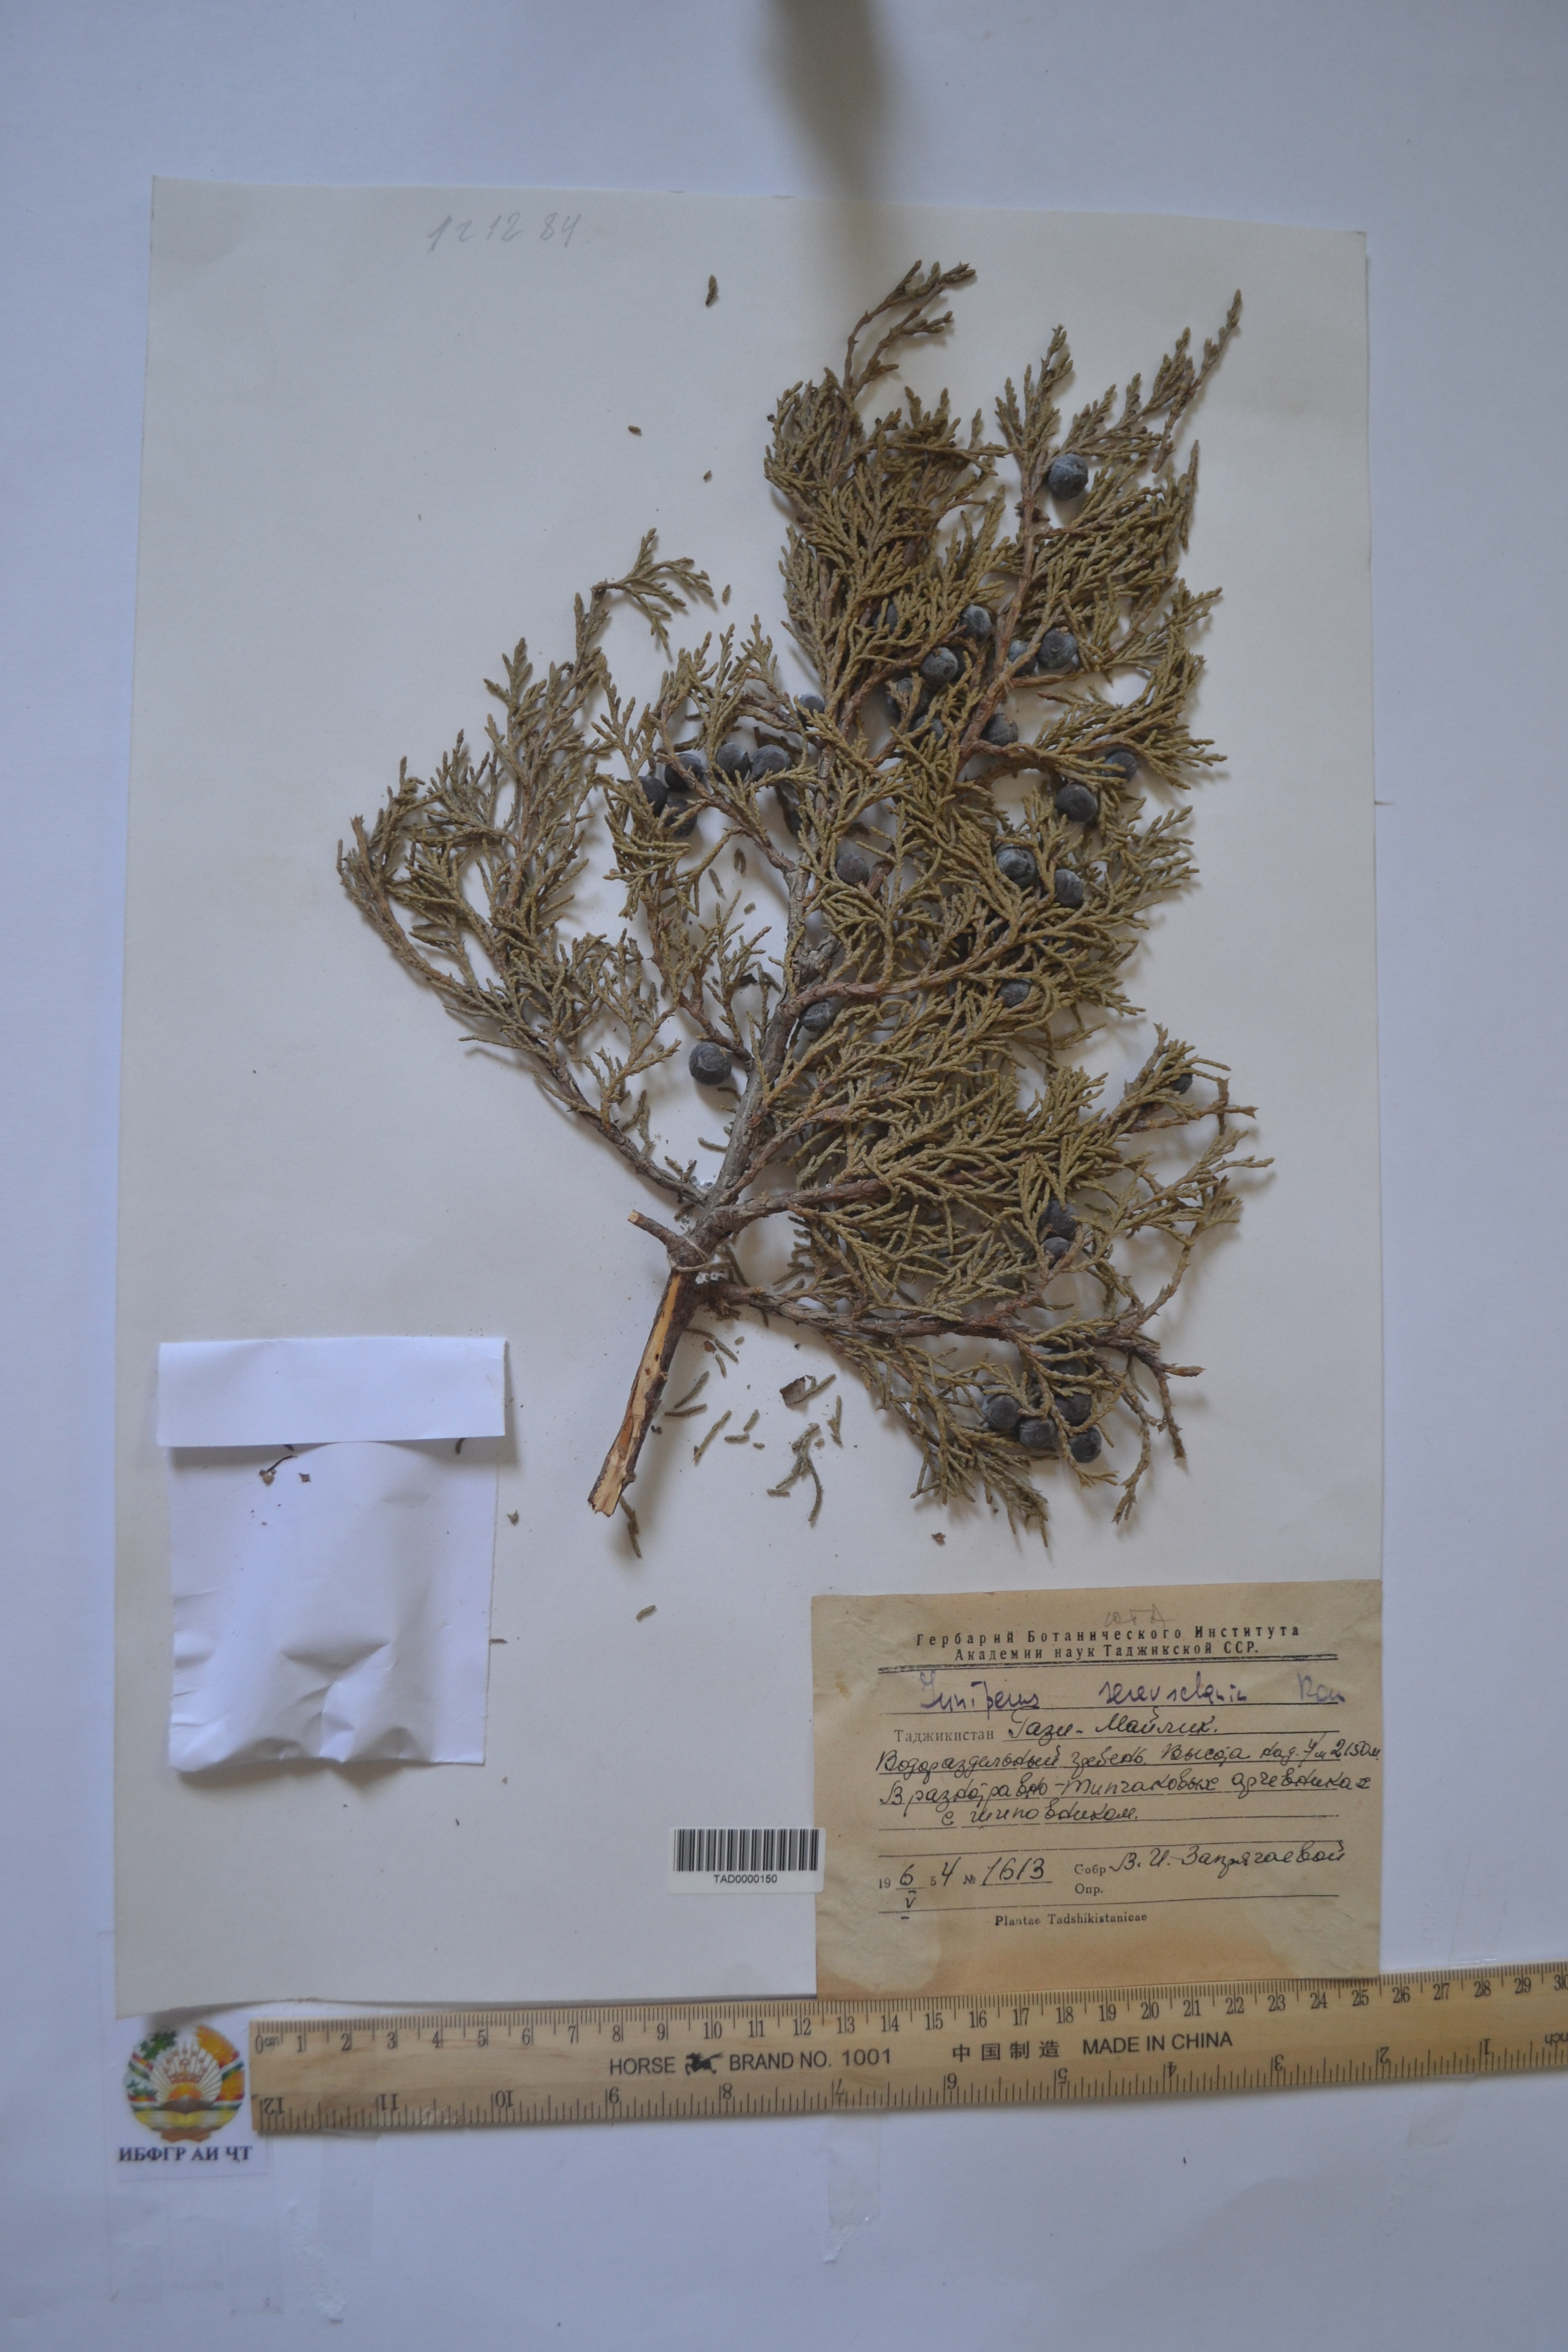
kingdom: Plantae
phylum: Tracheophyta
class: Pinopsida
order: Pinales
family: Cupressaceae
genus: Juniperus
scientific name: Juniperus excelsa
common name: Crimean juniper
